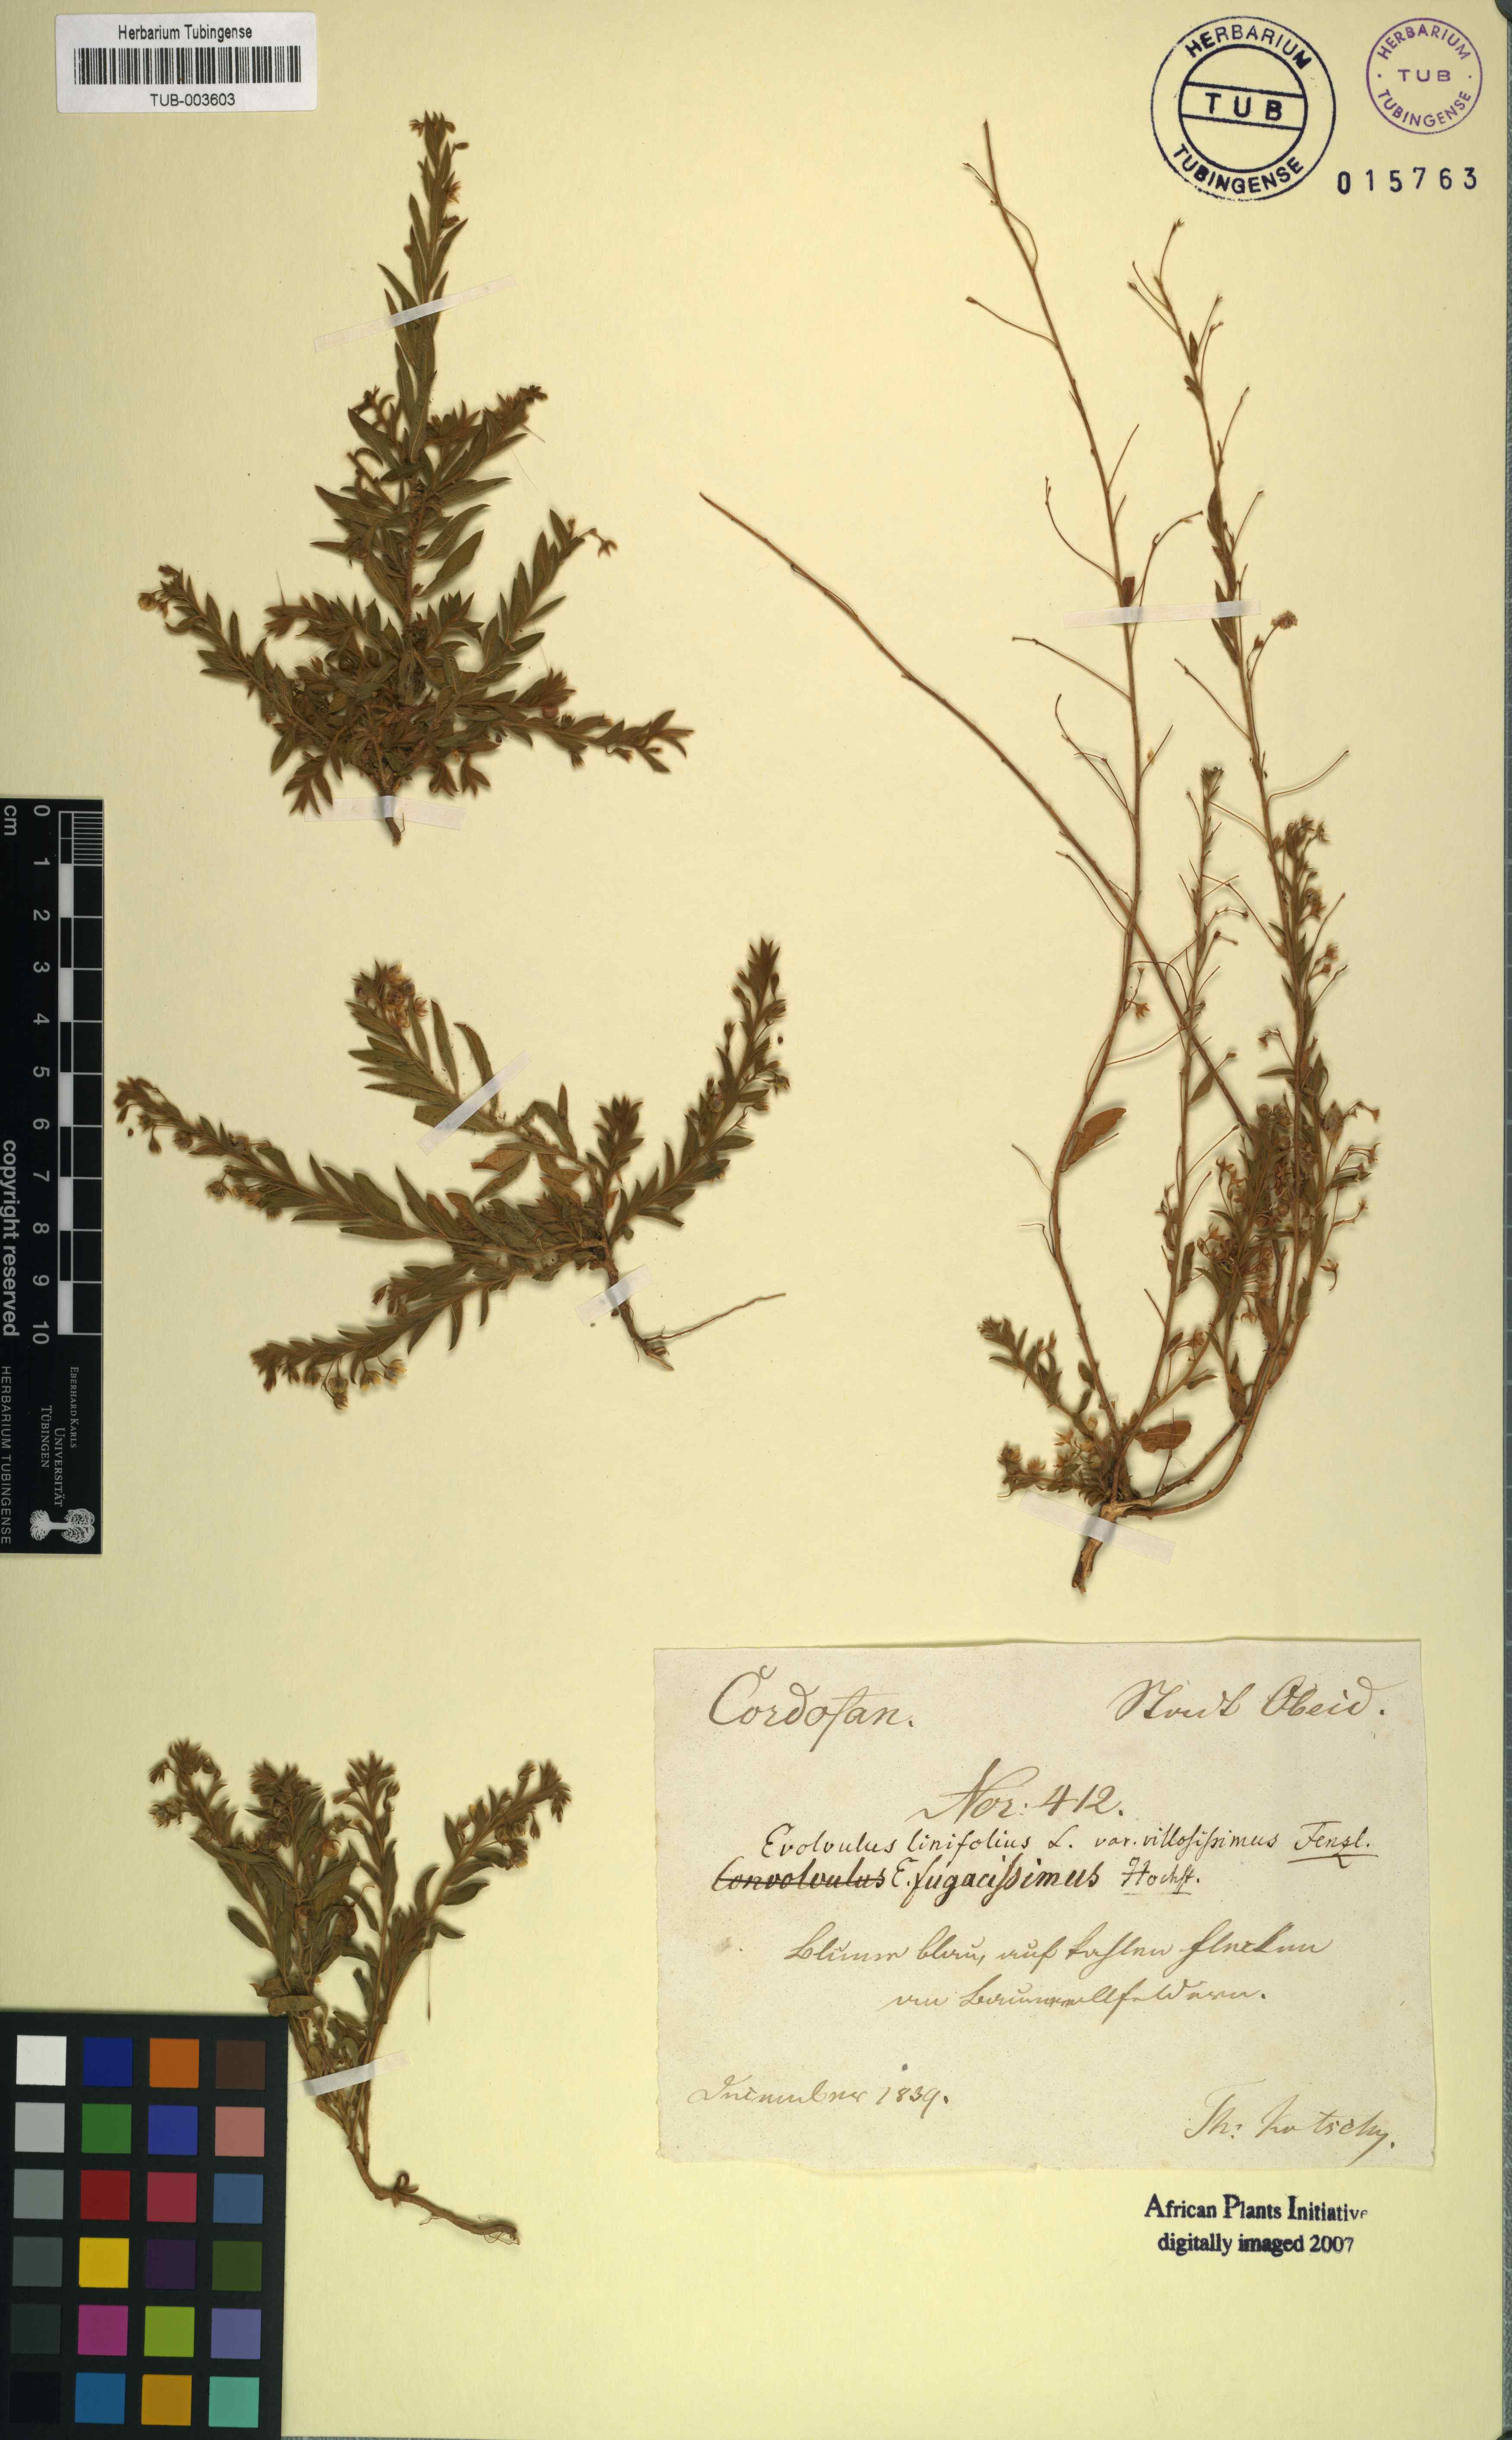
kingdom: Plantae
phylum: Tracheophyta
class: Magnoliopsida
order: Solanales
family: Convolvulaceae
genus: Evolvulus
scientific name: Evolvulus alsinoides
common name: Slender dwarf morning-glory
